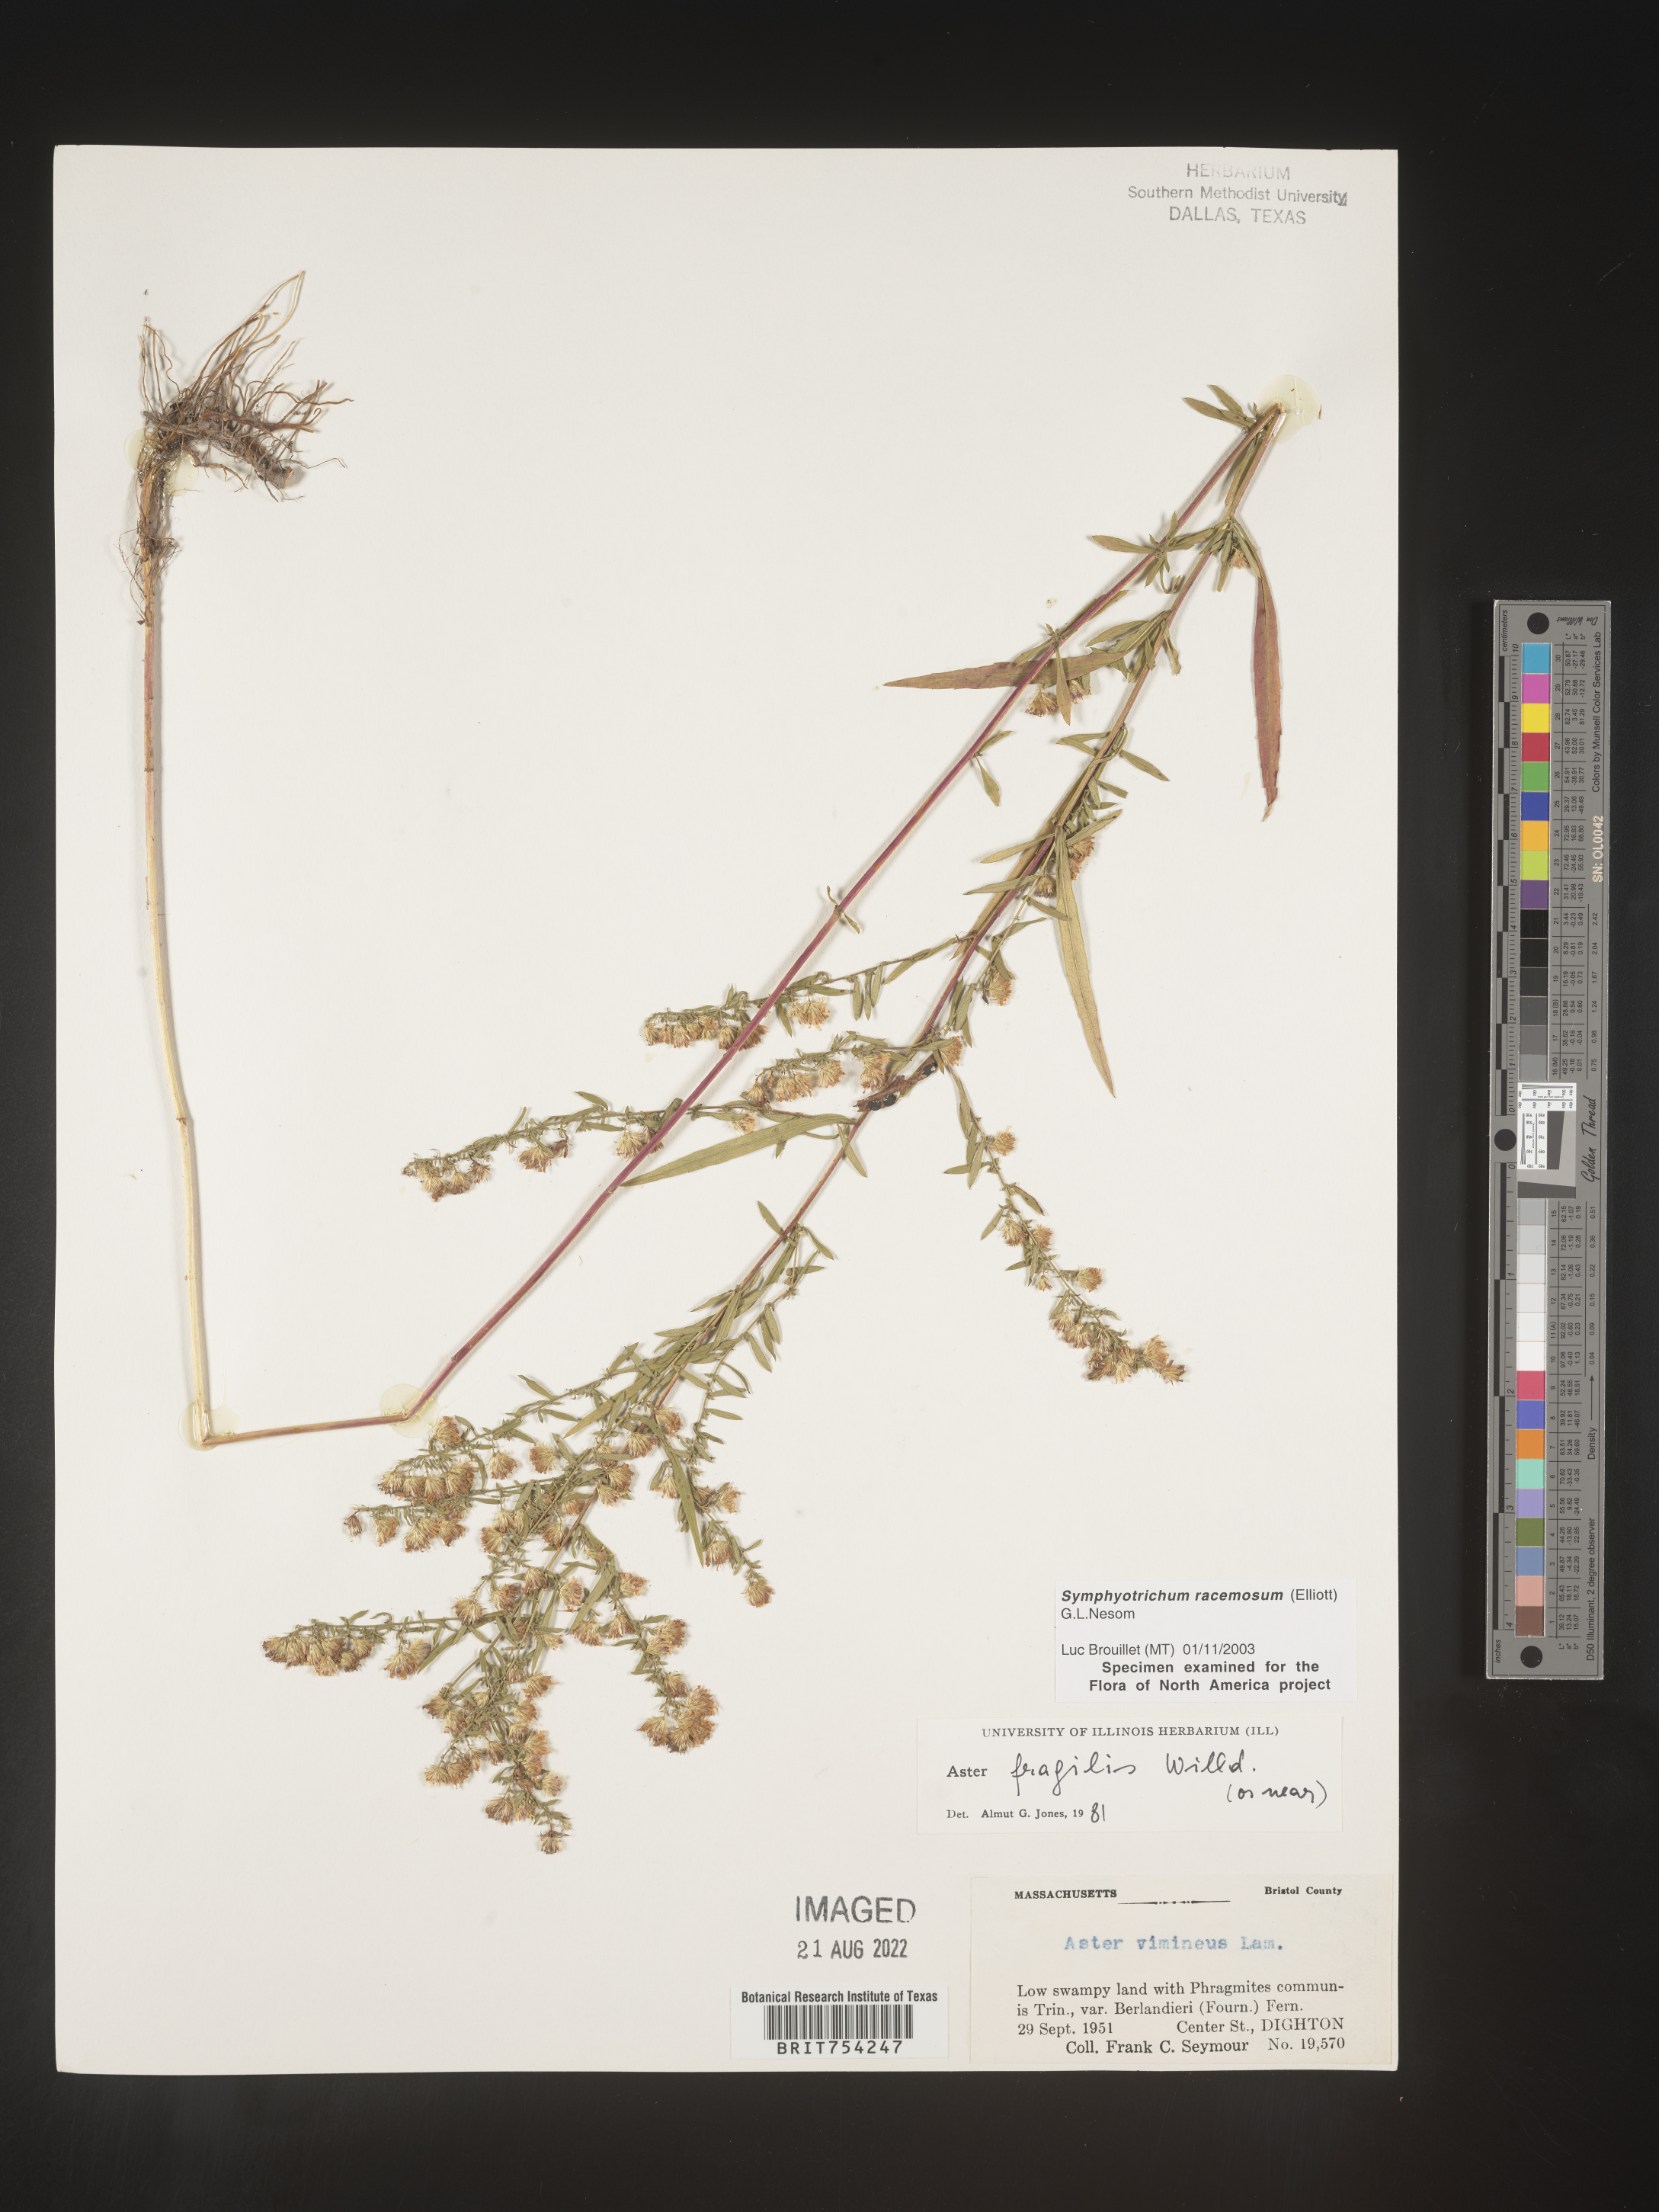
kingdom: Plantae
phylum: Tracheophyta
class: Magnoliopsida
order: Asterales
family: Asteraceae
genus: Symphyotrichum
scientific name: Symphyotrichum racemosum
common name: Small white aster
